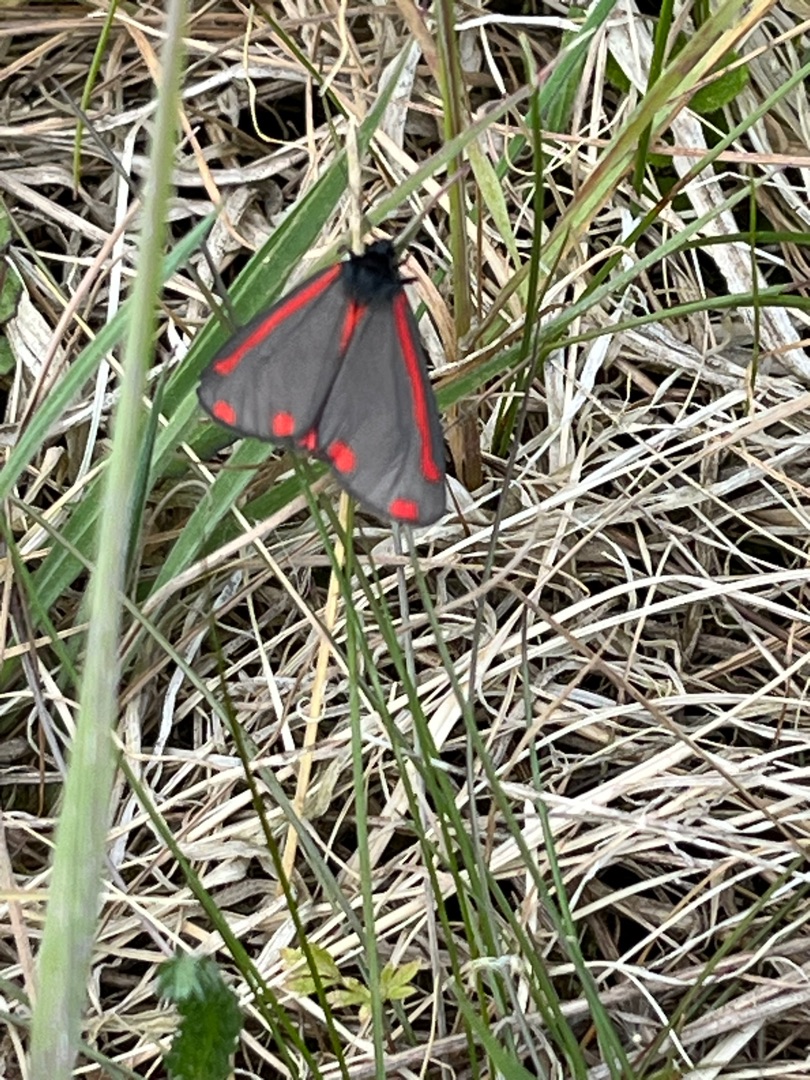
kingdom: Animalia
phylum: Arthropoda
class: Insecta
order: Lepidoptera
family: Erebidae
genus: Tyria
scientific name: Tyria jacobaeae
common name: Blodplet
